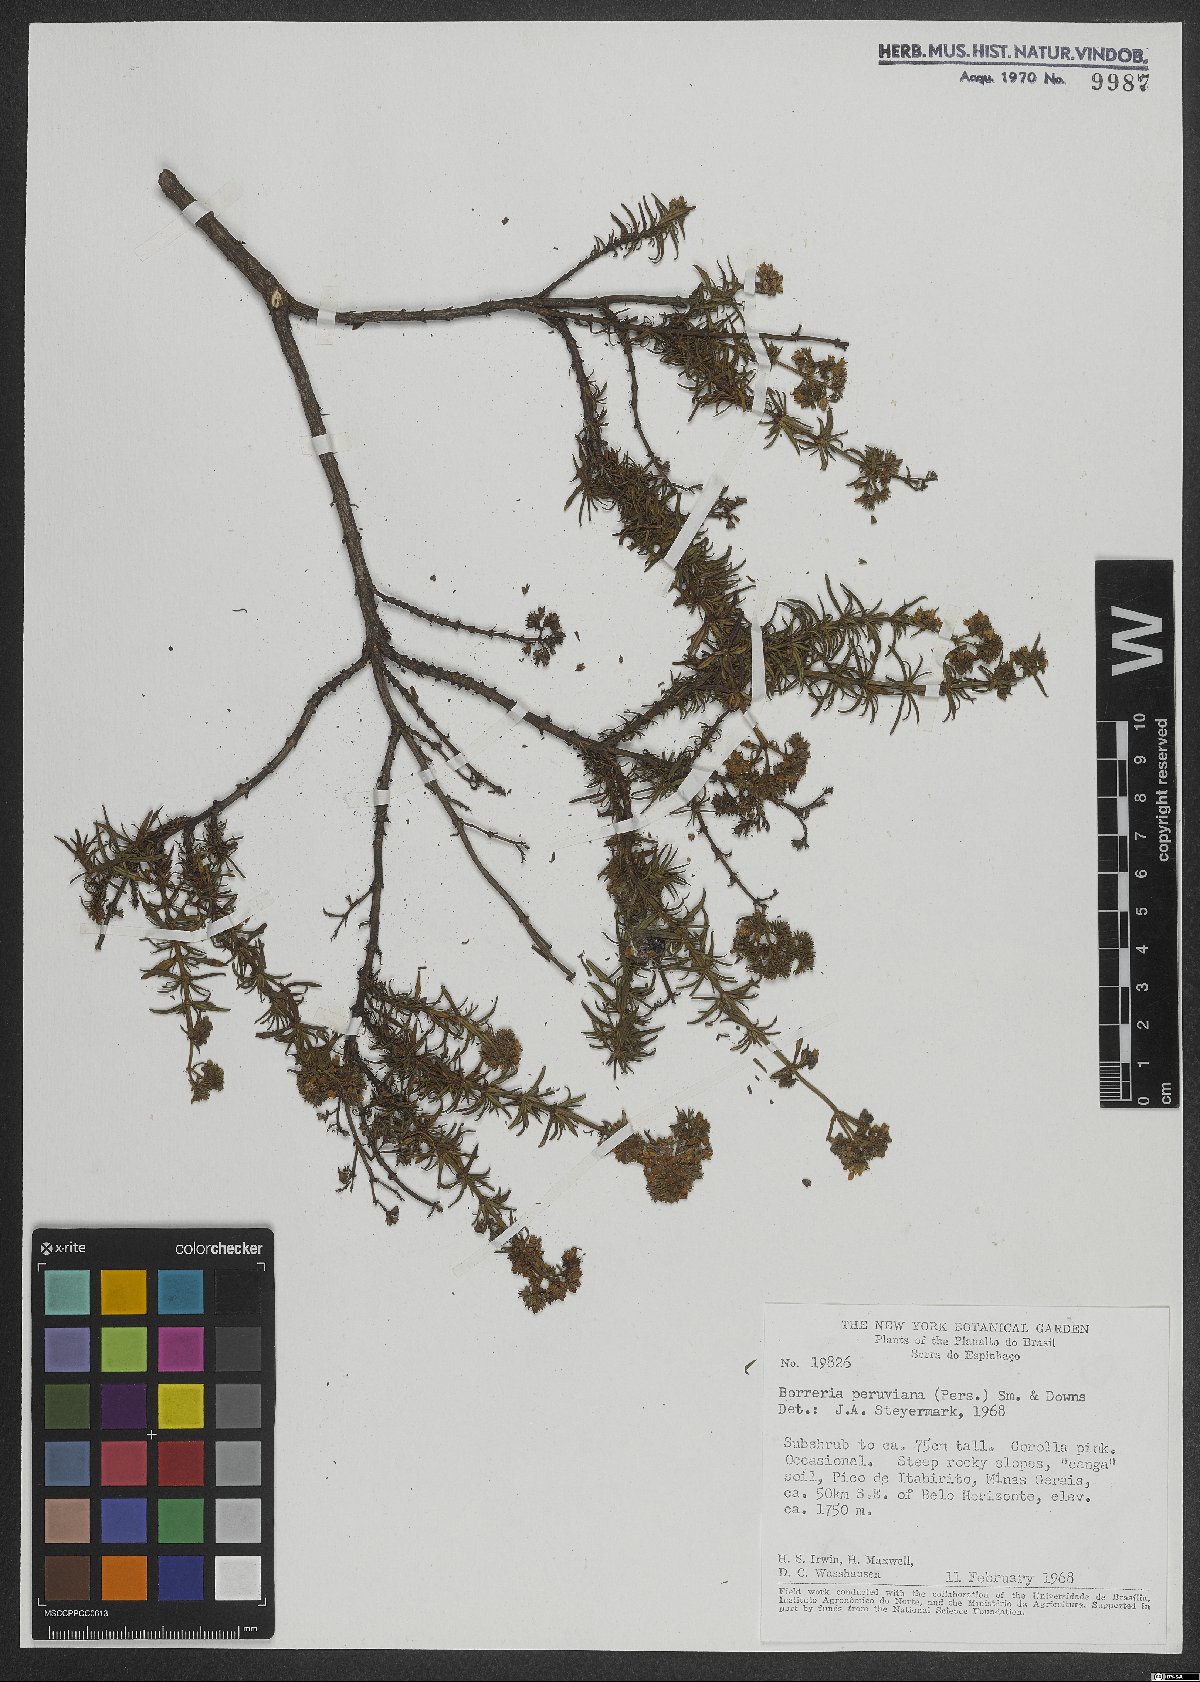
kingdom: Plantae
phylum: Tracheophyta
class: Magnoliopsida
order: Gentianales
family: Rubiaceae
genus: Galianthe
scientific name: Galianthe peruviana
